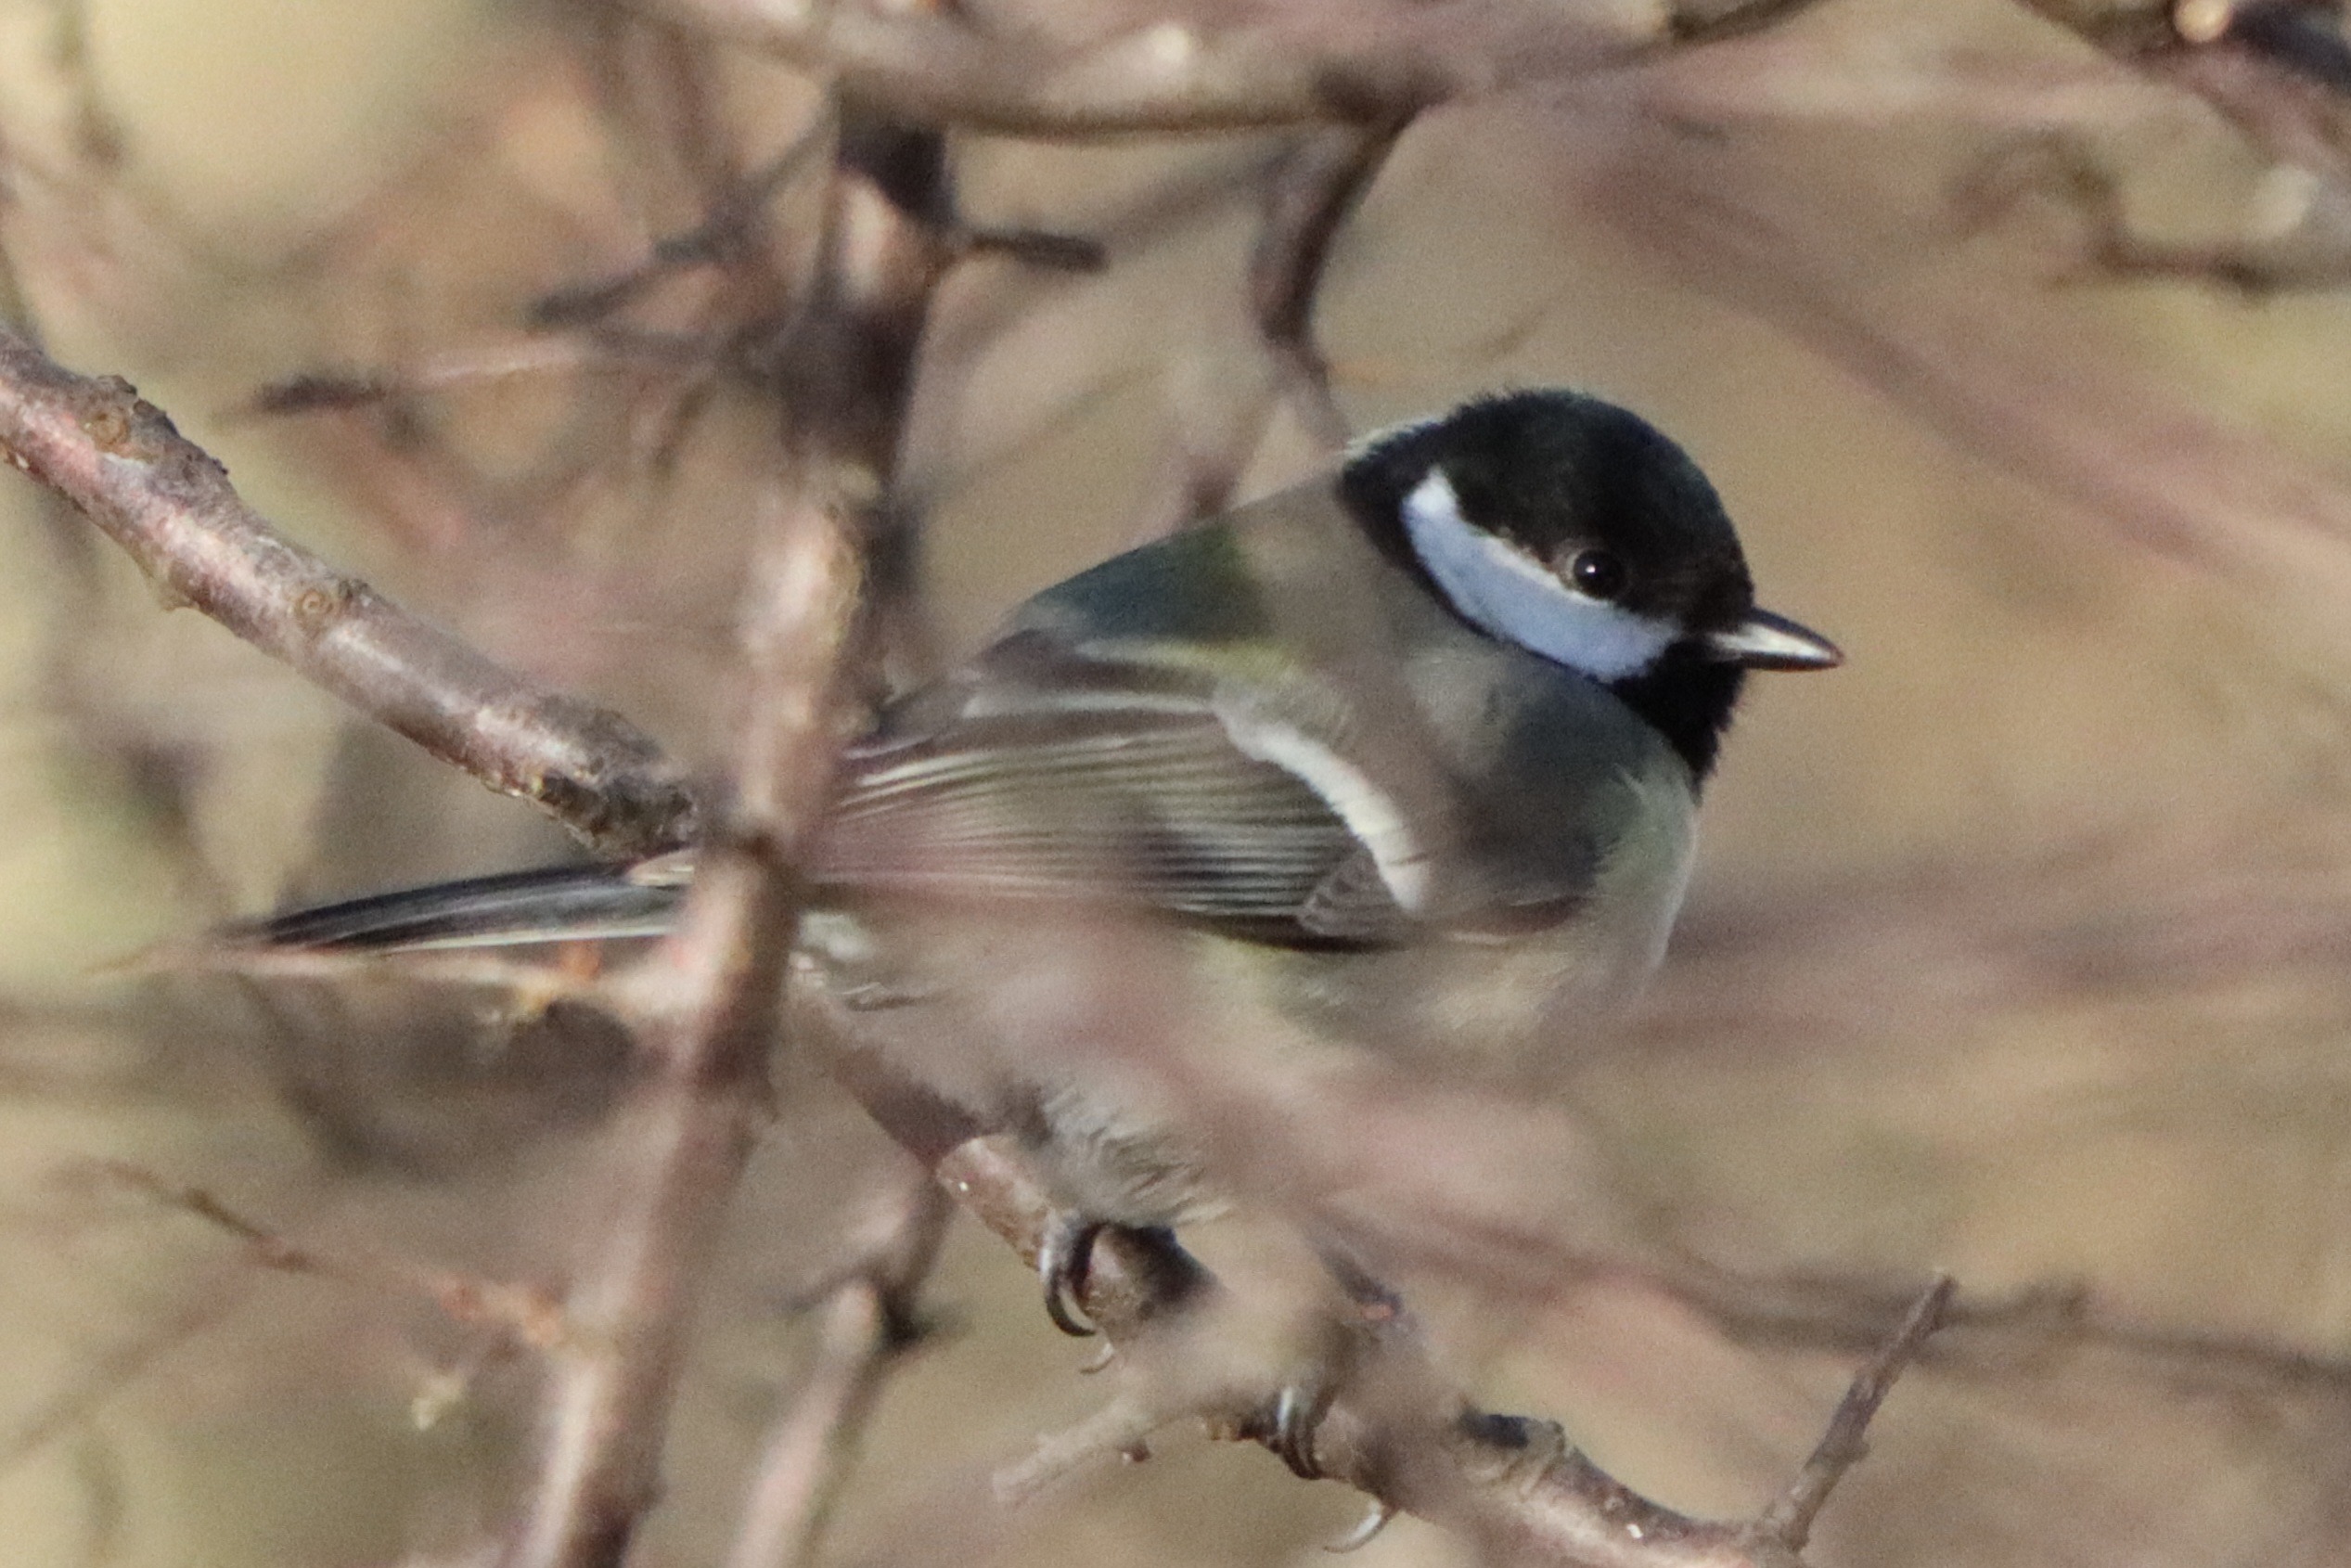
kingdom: Animalia
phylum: Chordata
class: Aves
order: Passeriformes
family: Paridae
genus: Parus
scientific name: Parus major
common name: Musvit
